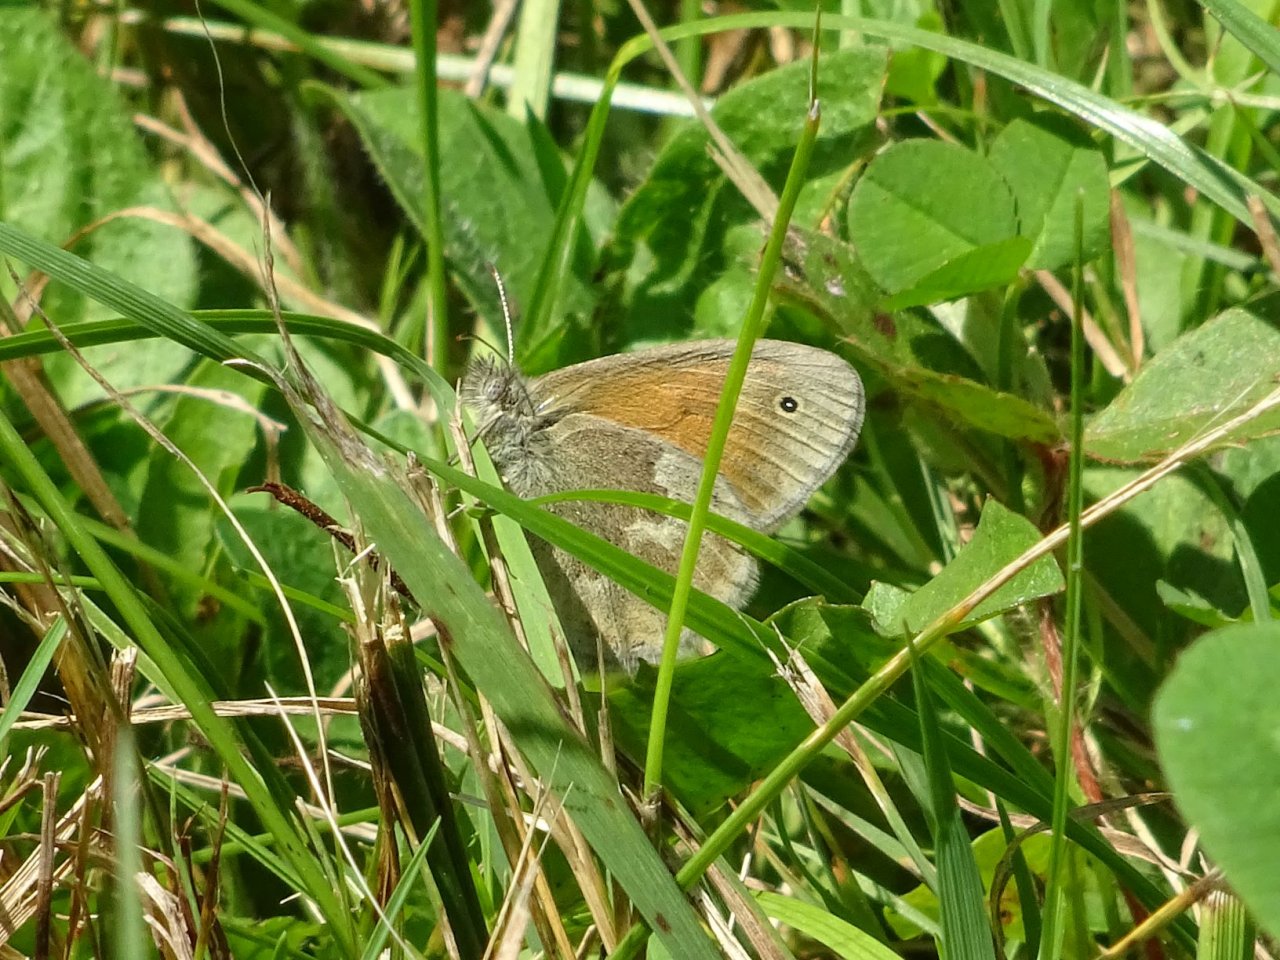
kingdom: Animalia
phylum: Arthropoda
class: Insecta
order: Lepidoptera
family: Nymphalidae
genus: Coenonympha
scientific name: Coenonympha tullia
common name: Large Heath
